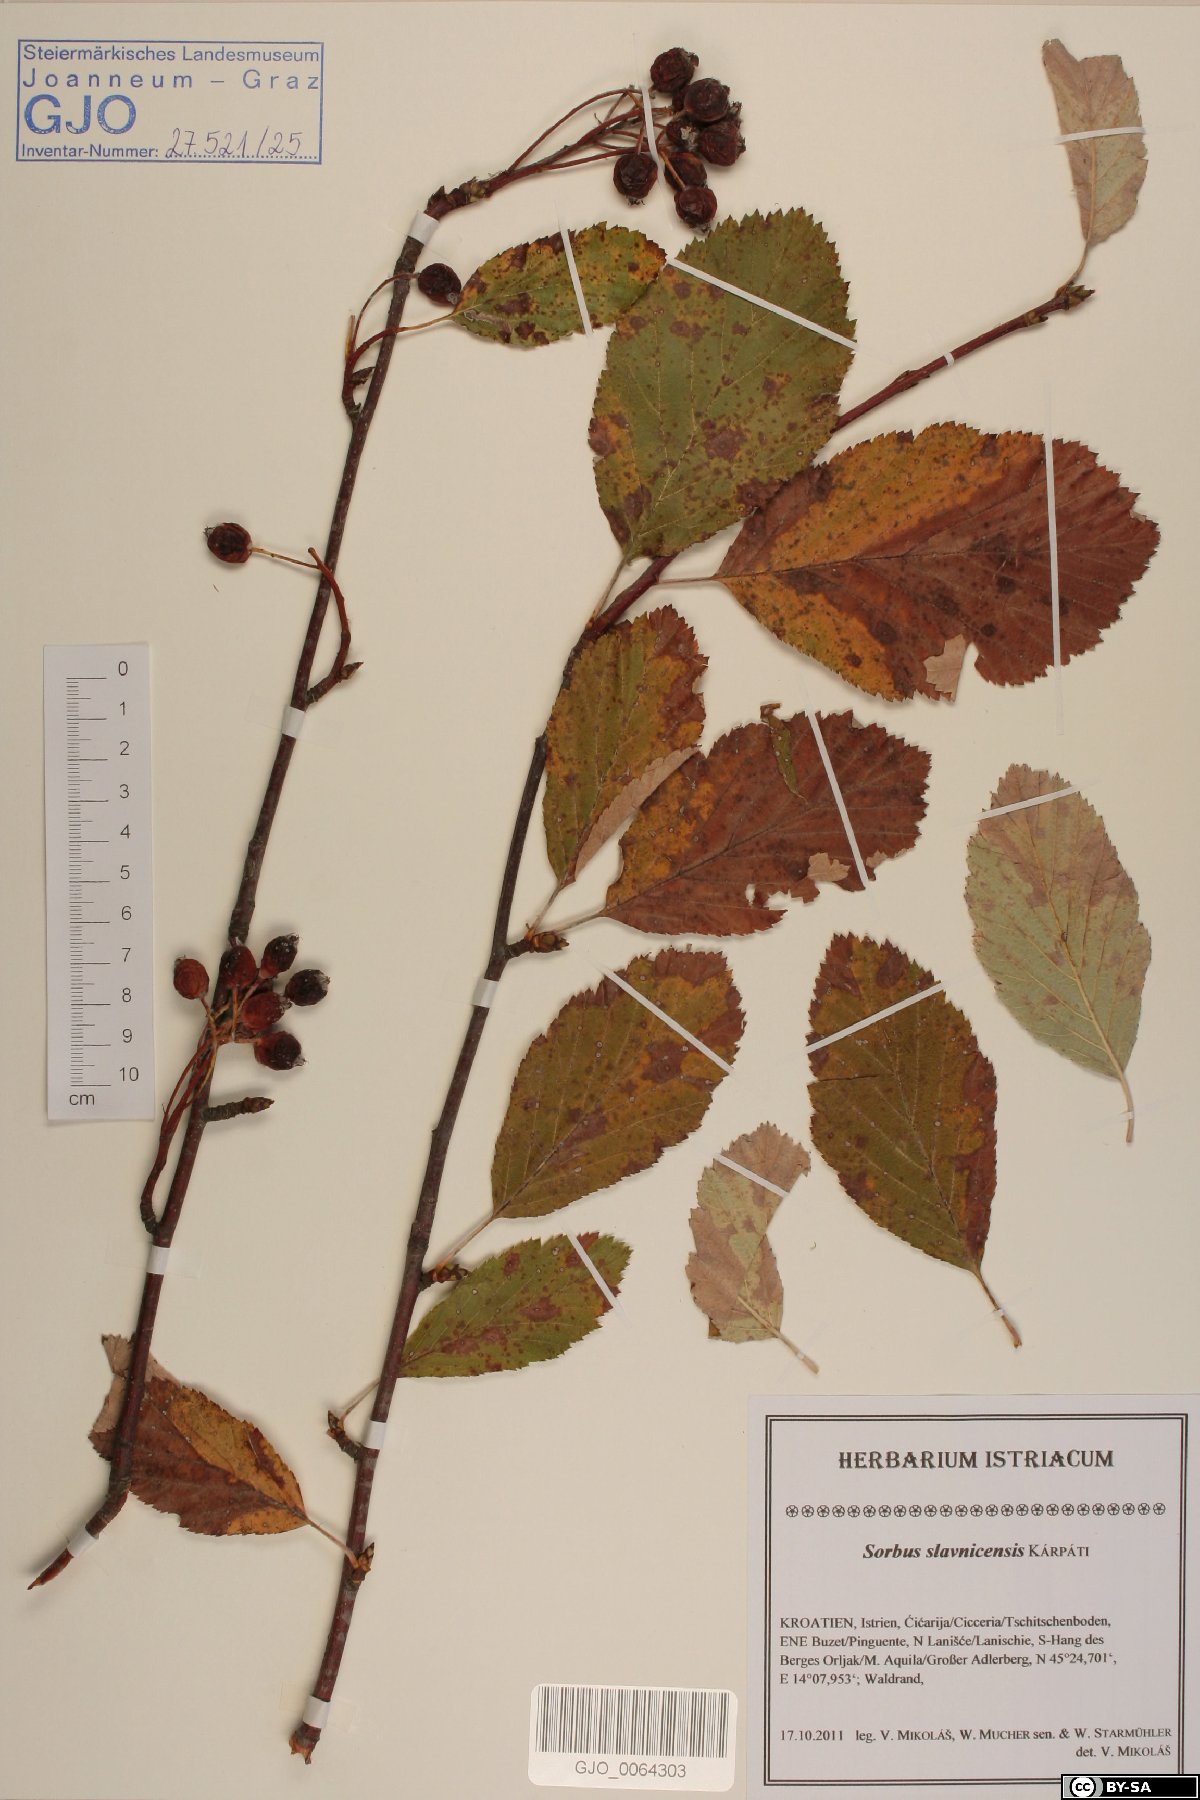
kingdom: Plantae
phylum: Tracheophyta
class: Magnoliopsida
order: Rosales
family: Rosaceae
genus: Karpatiosorbus
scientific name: Karpatiosorbus slavnicensis
